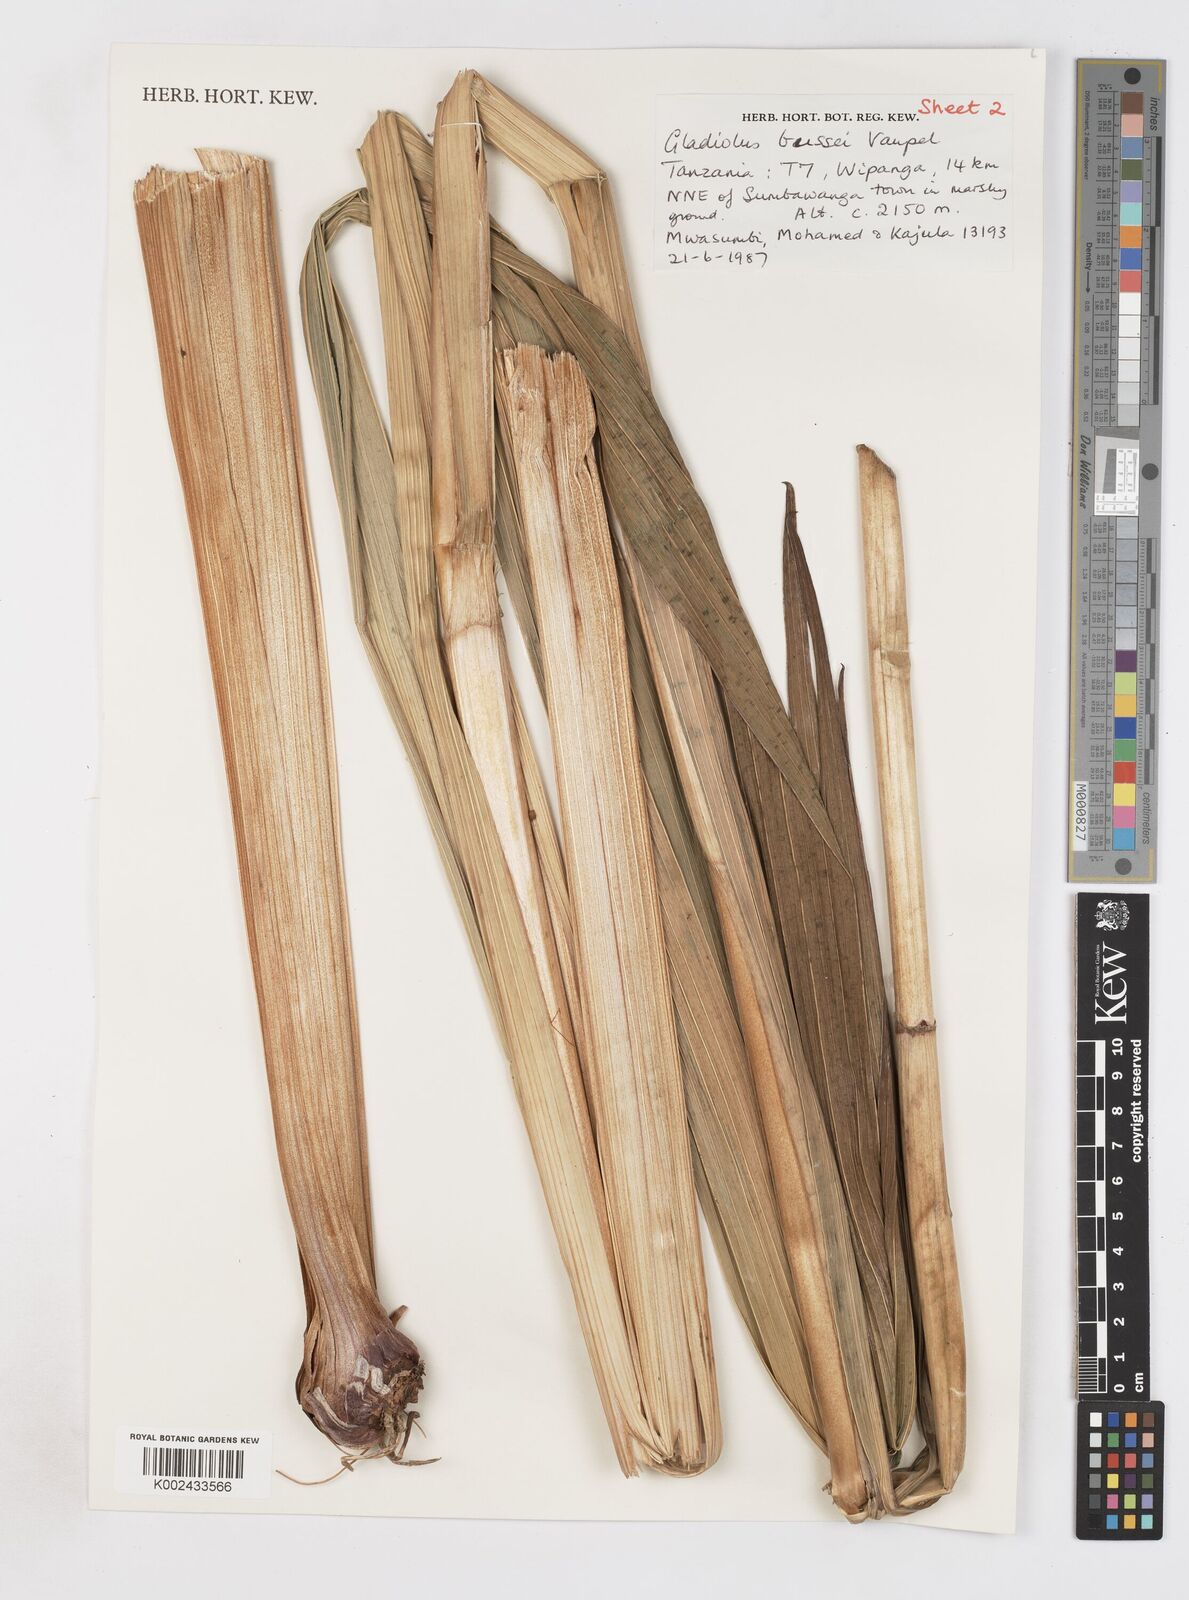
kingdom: Plantae
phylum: Tracheophyta
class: Liliopsida
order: Asparagales
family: Iridaceae
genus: Gladiolus
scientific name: Gladiolus oliganthus
